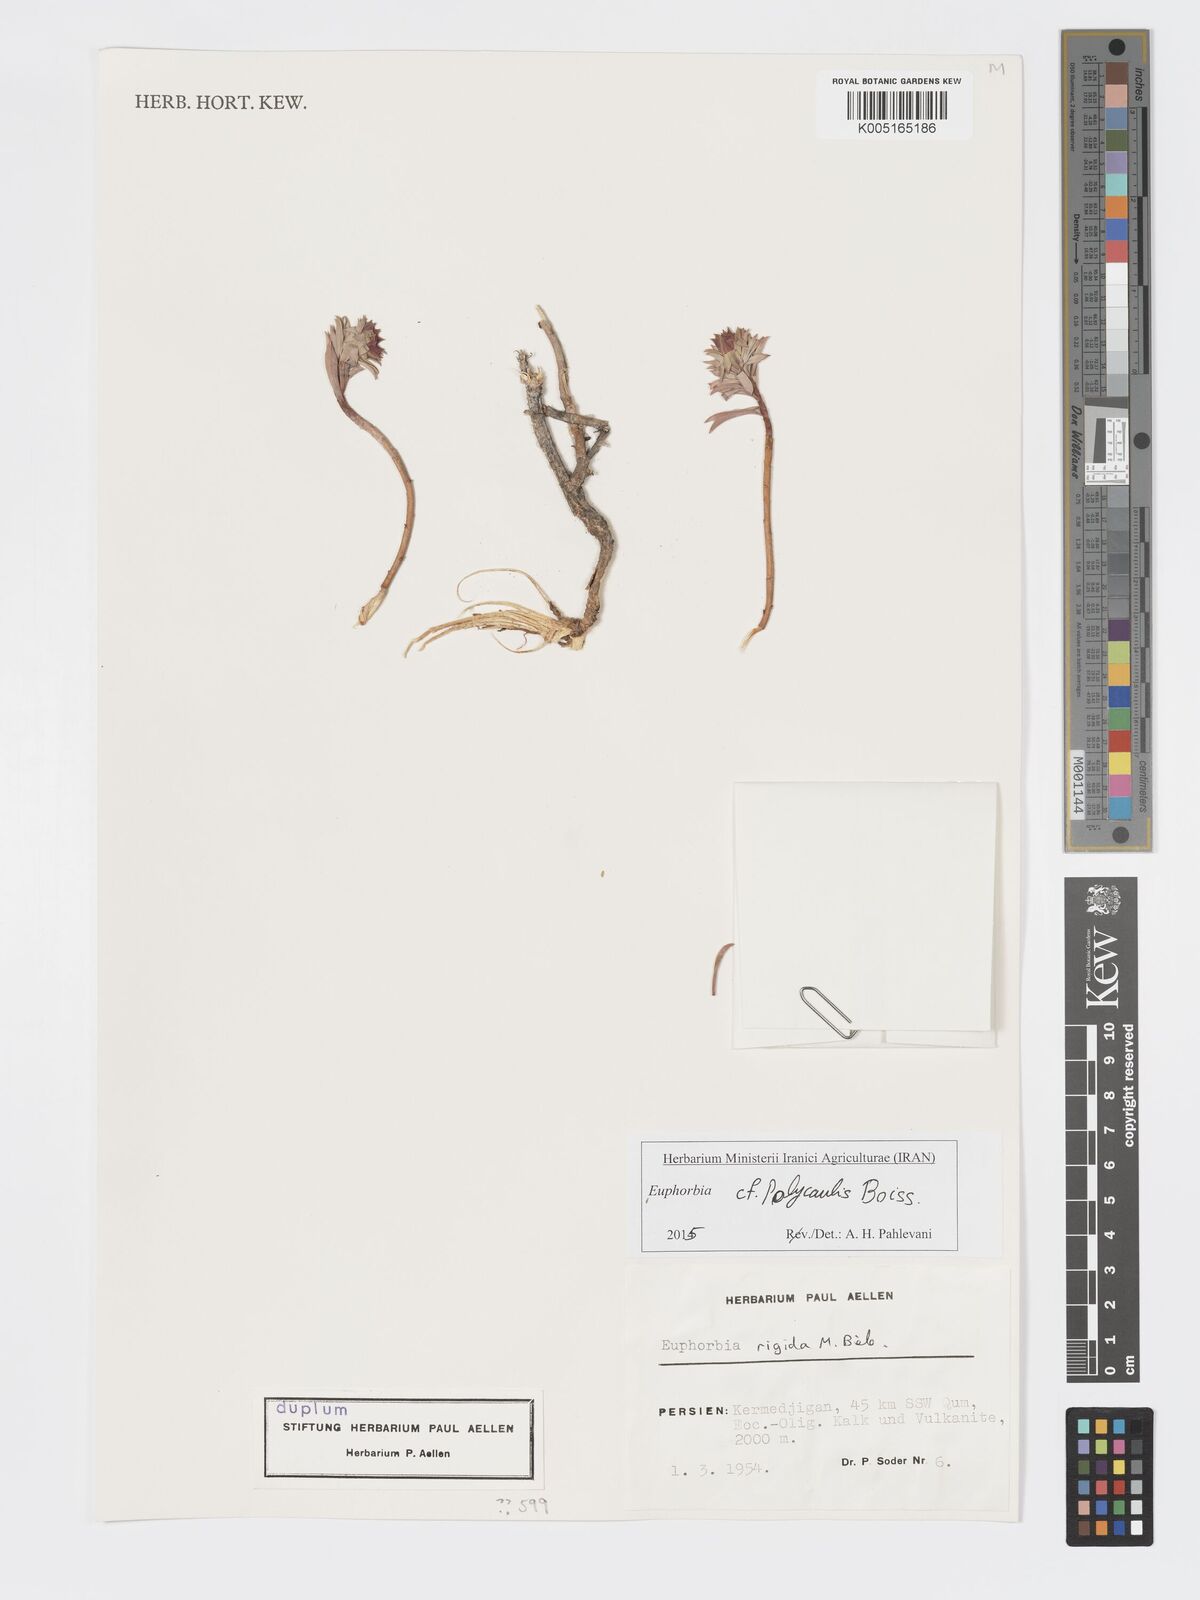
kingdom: Plantae
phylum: Tracheophyta
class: Magnoliopsida
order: Malpighiales
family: Euphorbiaceae
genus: Euphorbia
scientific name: Euphorbia polycaulis
